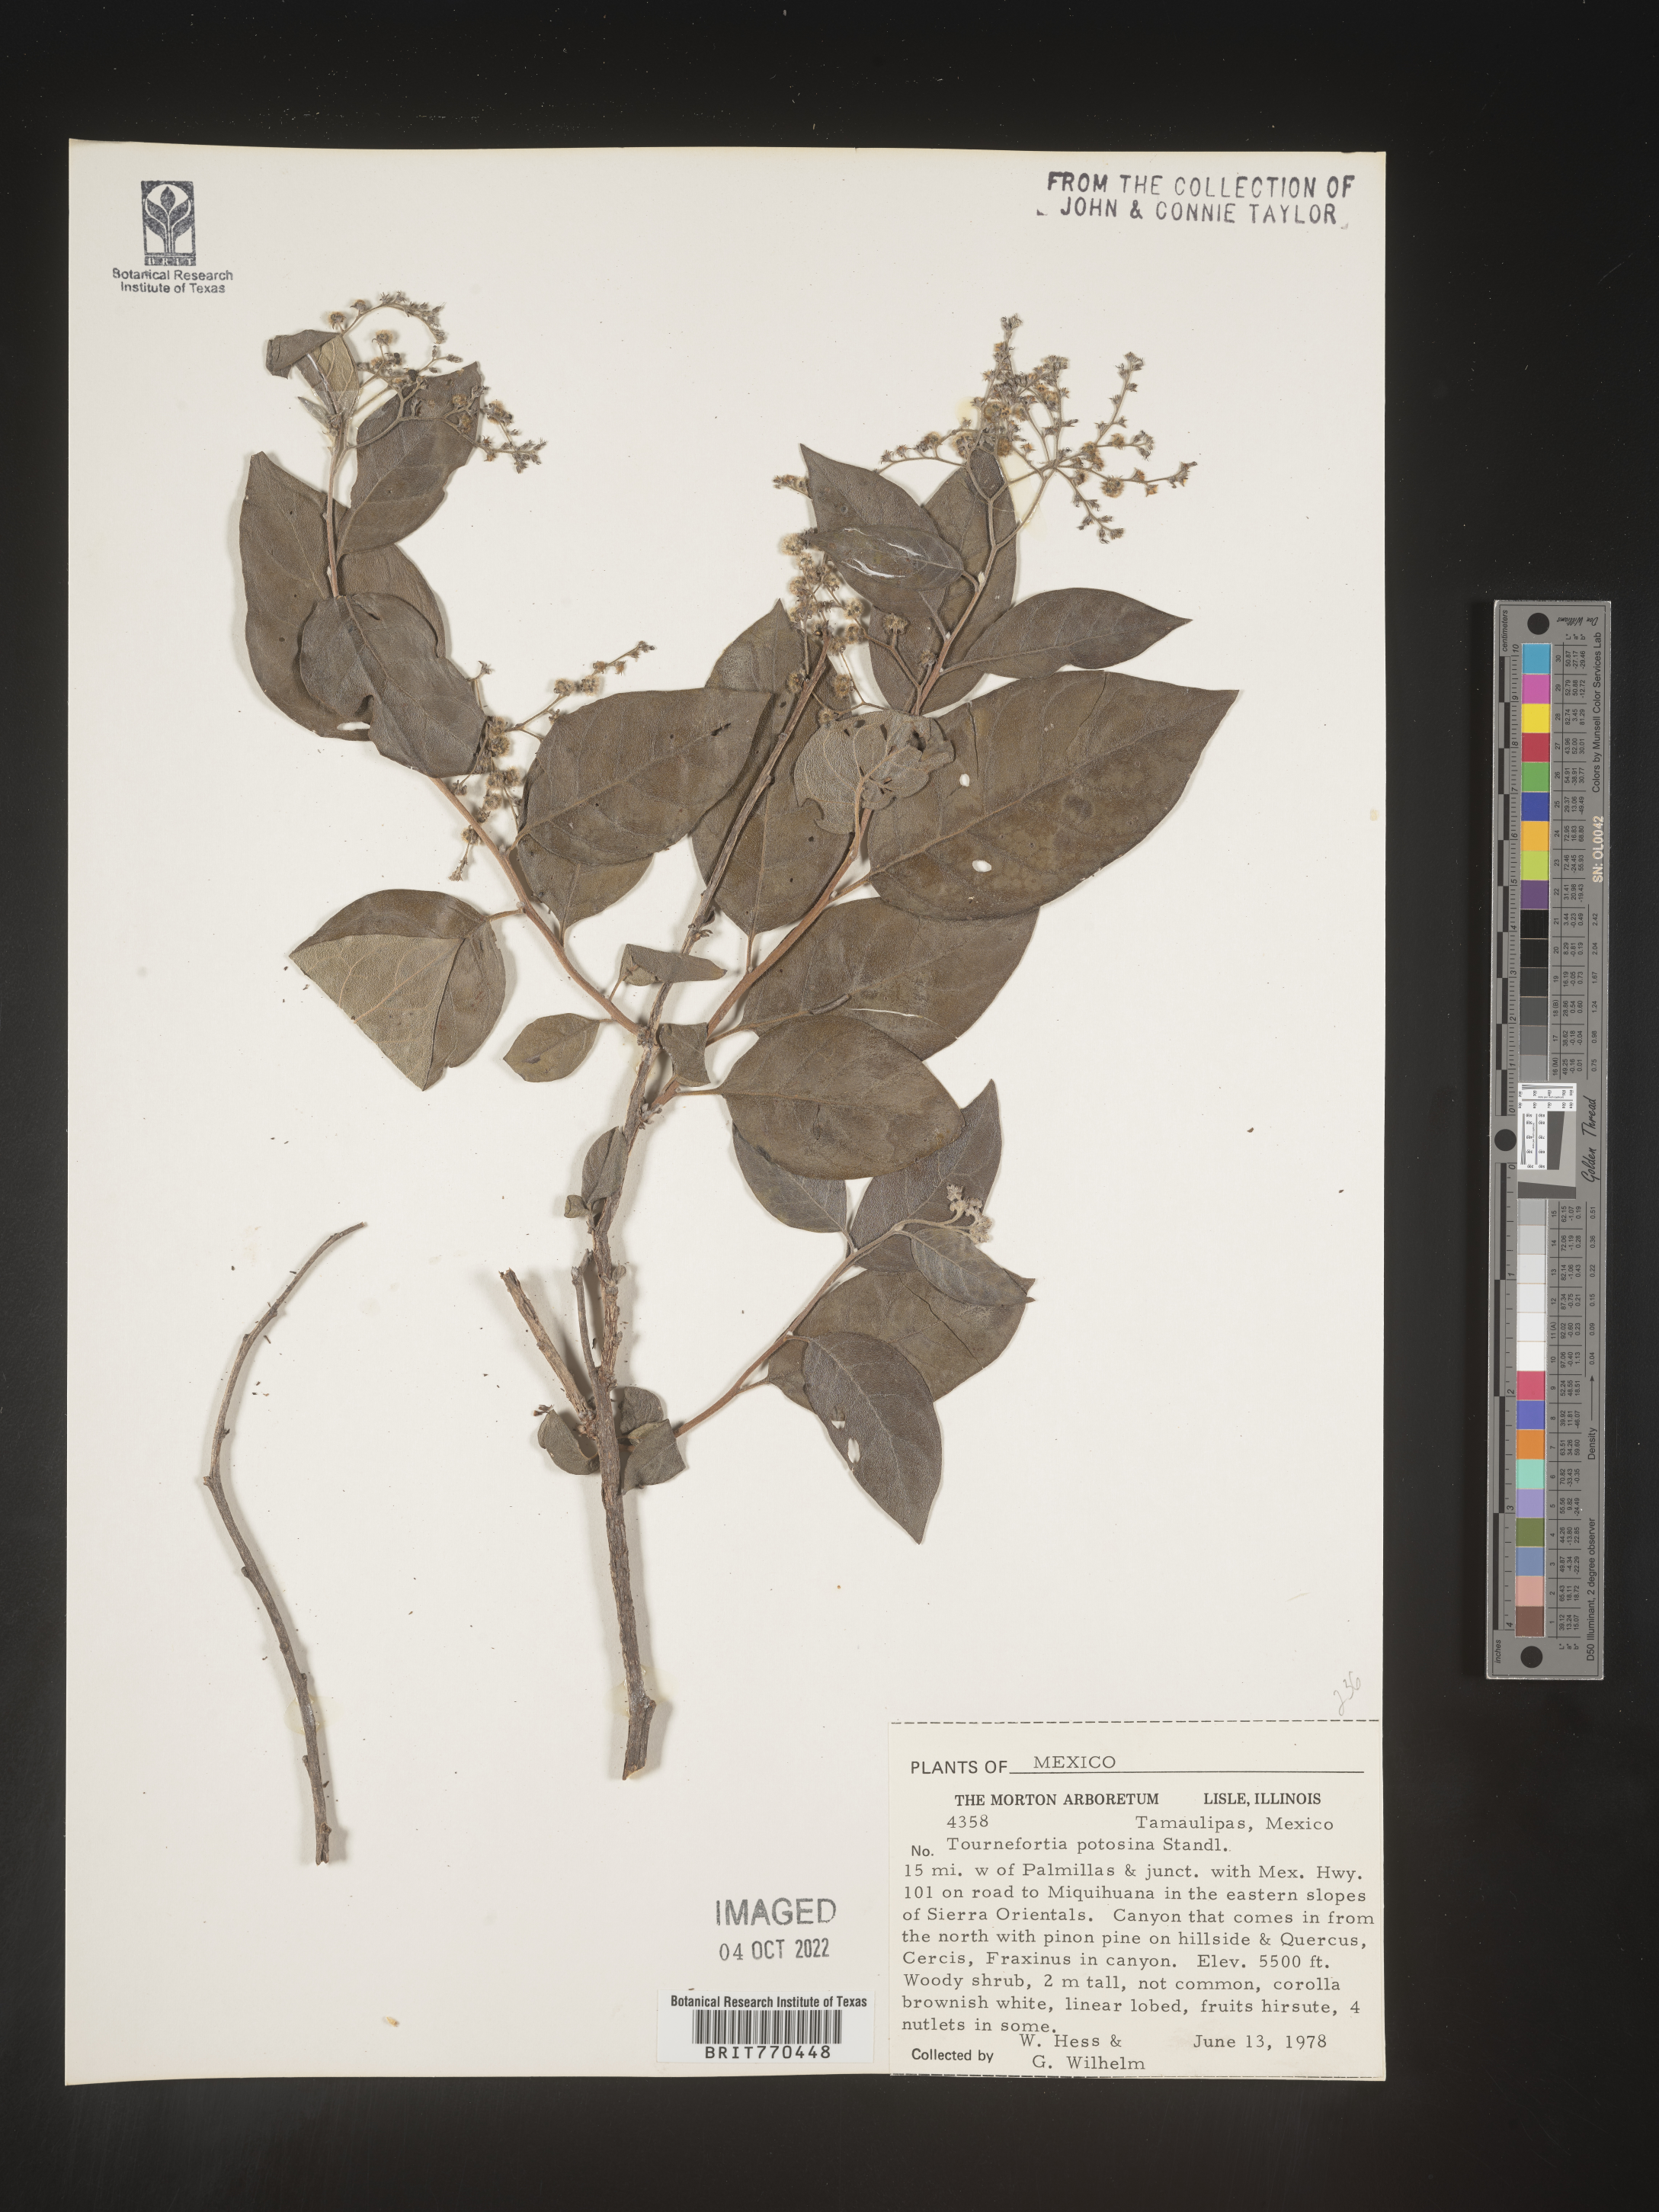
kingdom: Plantae
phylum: Tracheophyta
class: Magnoliopsida
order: Boraginales
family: Heliotropiaceae
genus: Tournefortia
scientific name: Tournefortia
